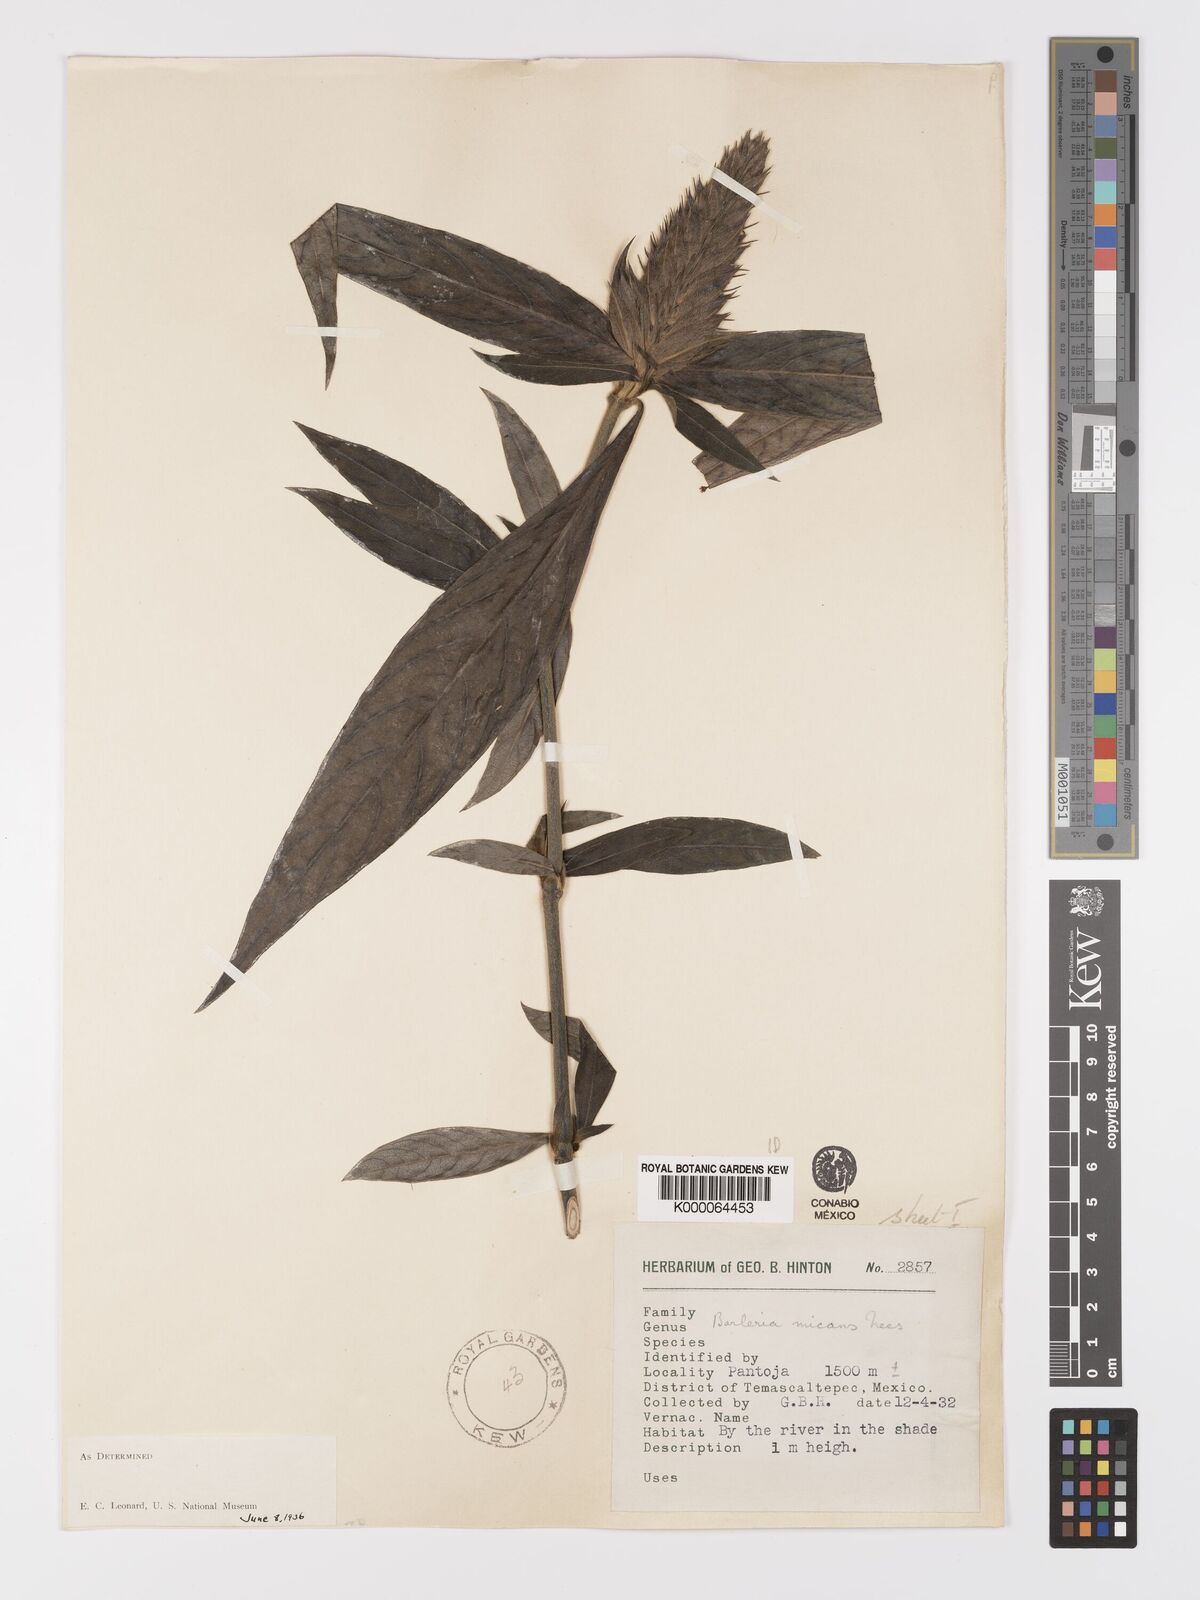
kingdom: Plantae
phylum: Tracheophyta
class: Magnoliopsida
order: Lamiales
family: Acanthaceae
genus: Barleria
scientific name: Barleria oenotheroides
